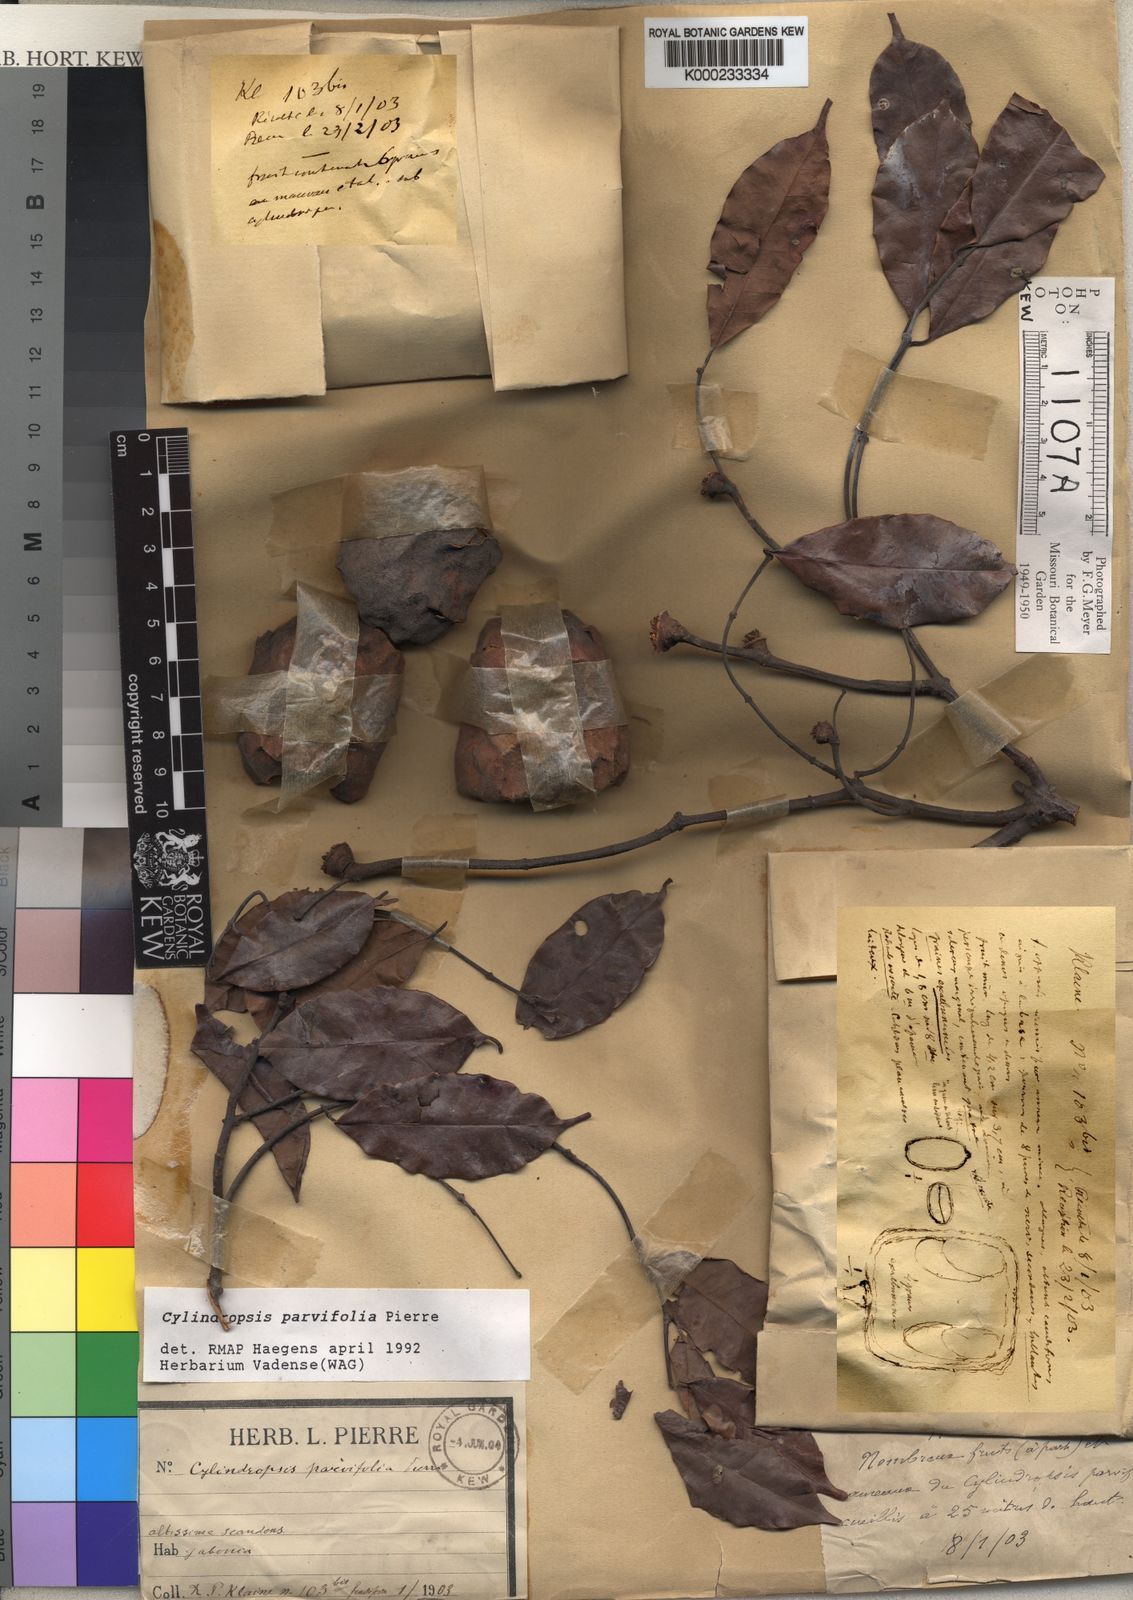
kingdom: Plantae
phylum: Tracheophyta
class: Magnoliopsida
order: Gentianales
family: Apocynaceae
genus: Cylindropsis
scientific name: Cylindropsis parvifolia
